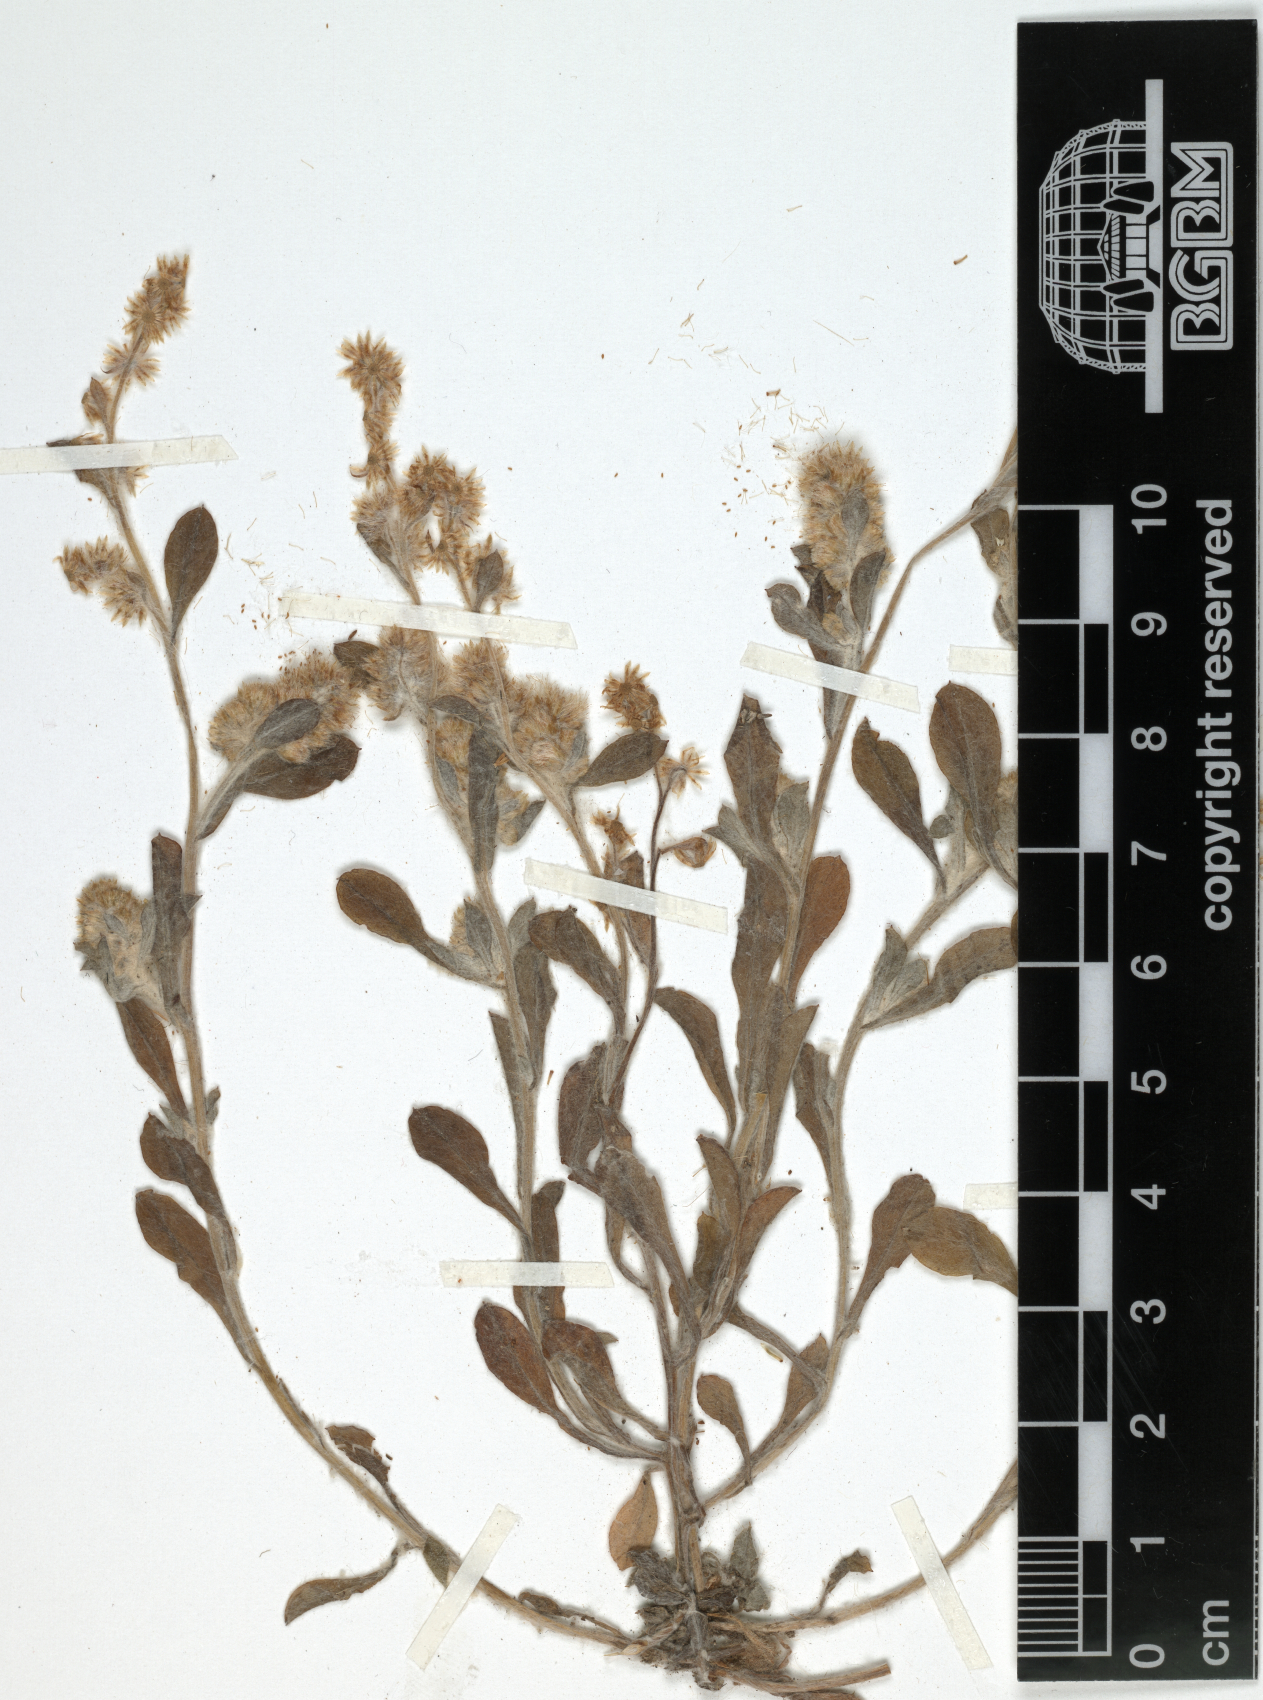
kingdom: Plantae
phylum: Tracheophyta
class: Magnoliopsida
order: Asterales
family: Asteraceae
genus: Gnaphalium
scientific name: Gnaphalium polycaulon
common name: Western cudweed
